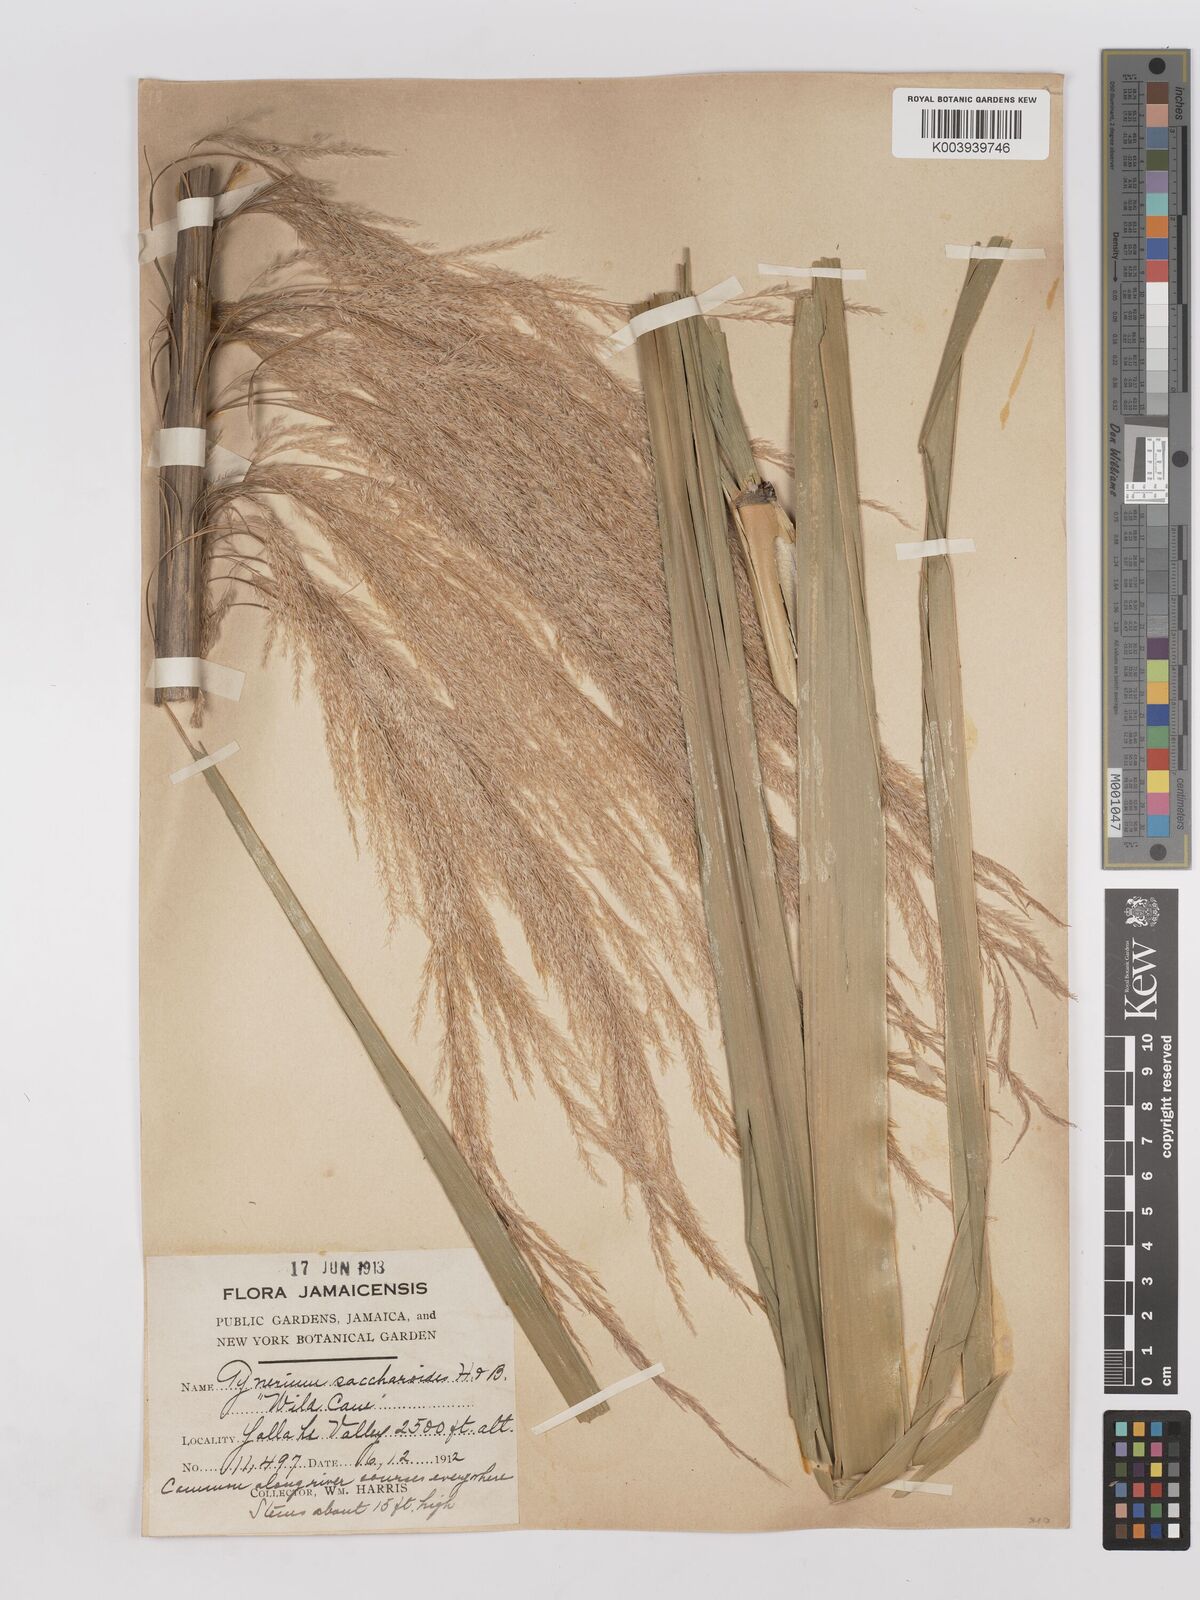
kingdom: Plantae
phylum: Tracheophyta
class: Liliopsida
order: Poales
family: Poaceae
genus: Gynerium
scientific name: Gynerium sagittatum
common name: Wild cane
